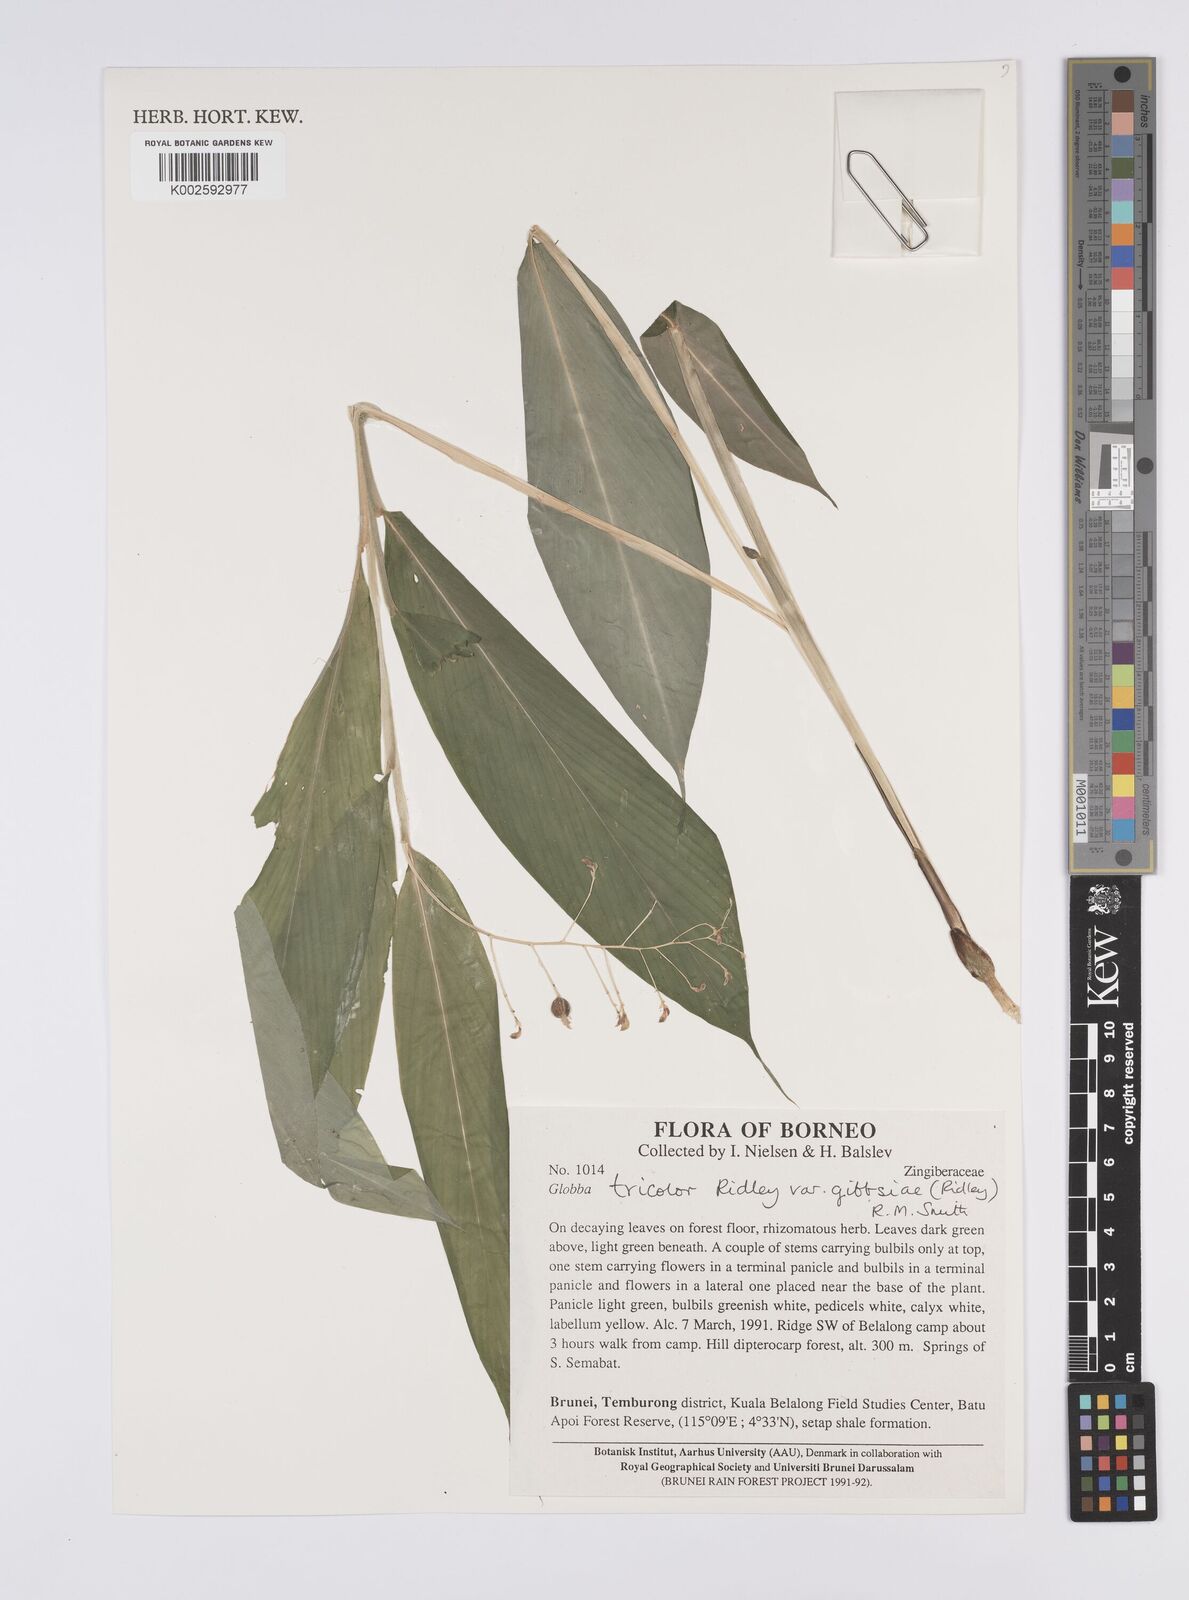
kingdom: Plantae
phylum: Tracheophyta
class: Liliopsida
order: Zingiberales
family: Zingiberaceae
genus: Globba
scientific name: Globba tricolor
